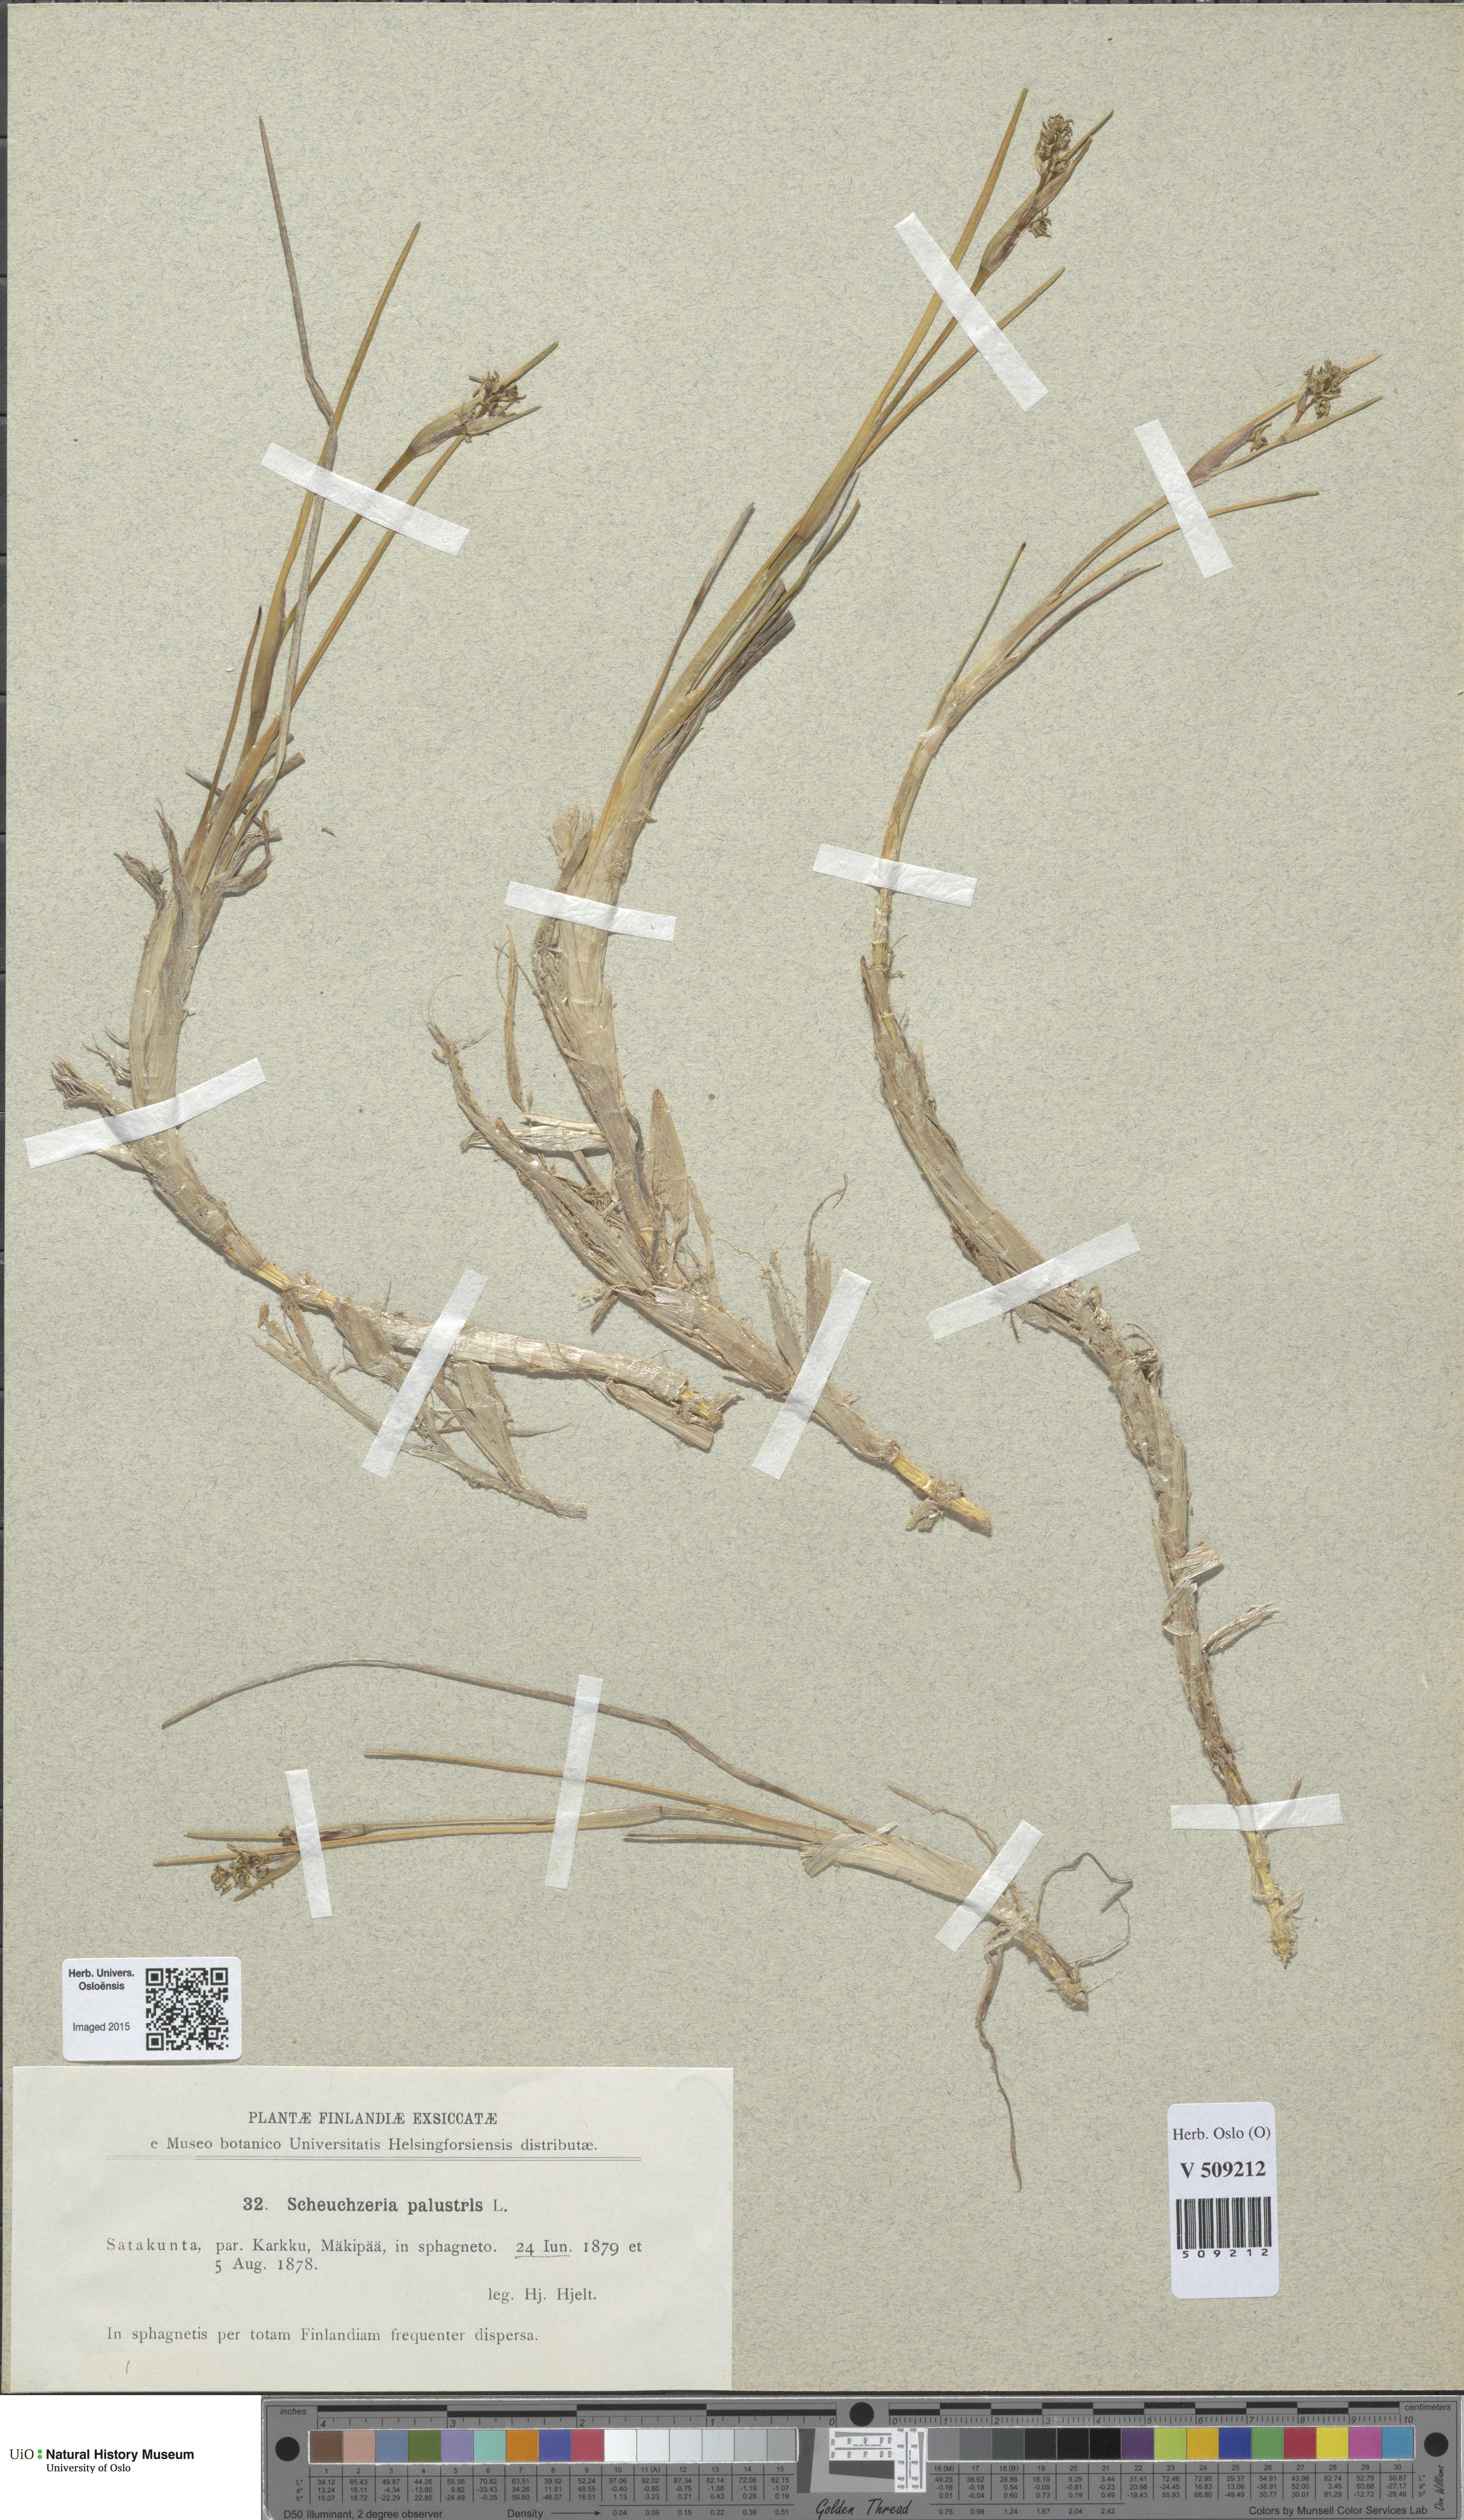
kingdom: Plantae
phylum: Tracheophyta
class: Liliopsida
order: Alismatales
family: Scheuchzeriaceae
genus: Scheuchzeria
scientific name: Scheuchzeria palustris
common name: Rannoch-rush
